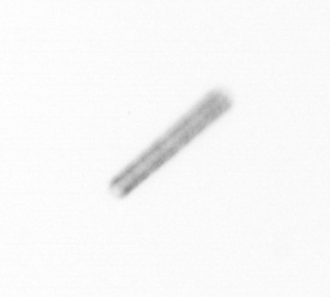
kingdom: Chromista
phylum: Ochrophyta
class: Bacillariophyceae
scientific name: Bacillariophyceae
